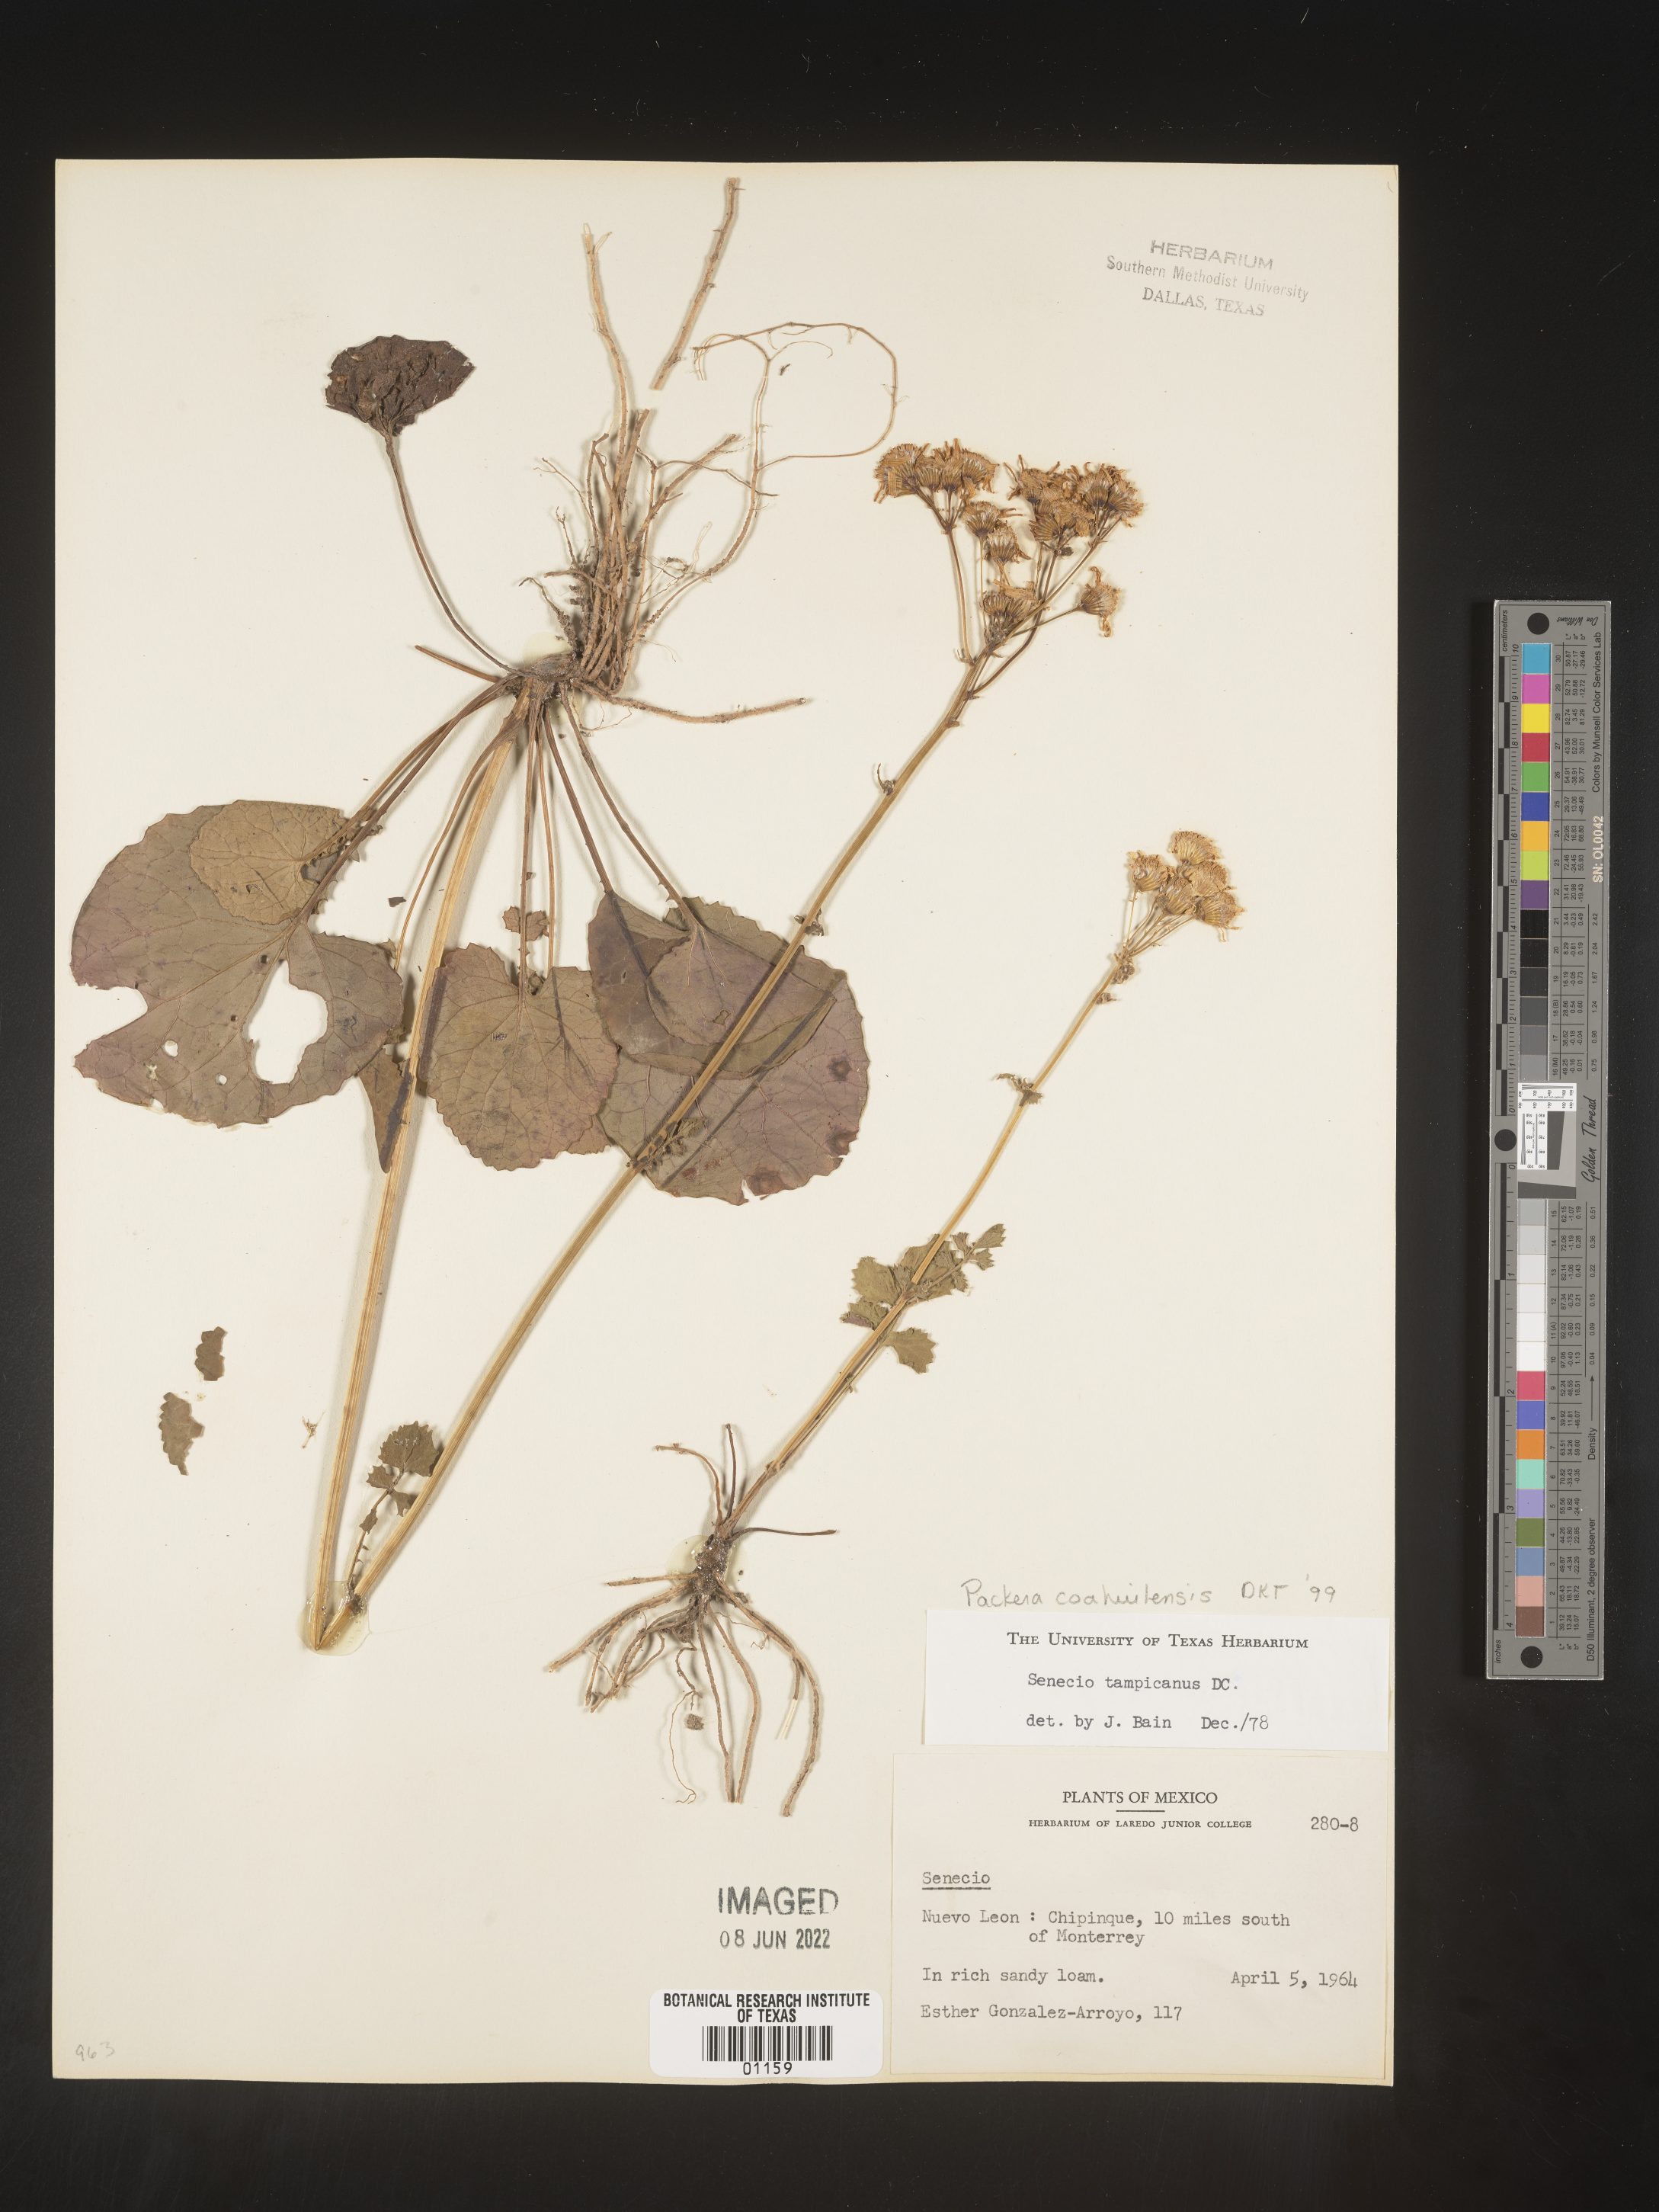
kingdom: Plantae
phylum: Tracheophyta
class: Magnoliopsida
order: Asterales
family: Asteraceae
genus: Packera
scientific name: Packera
